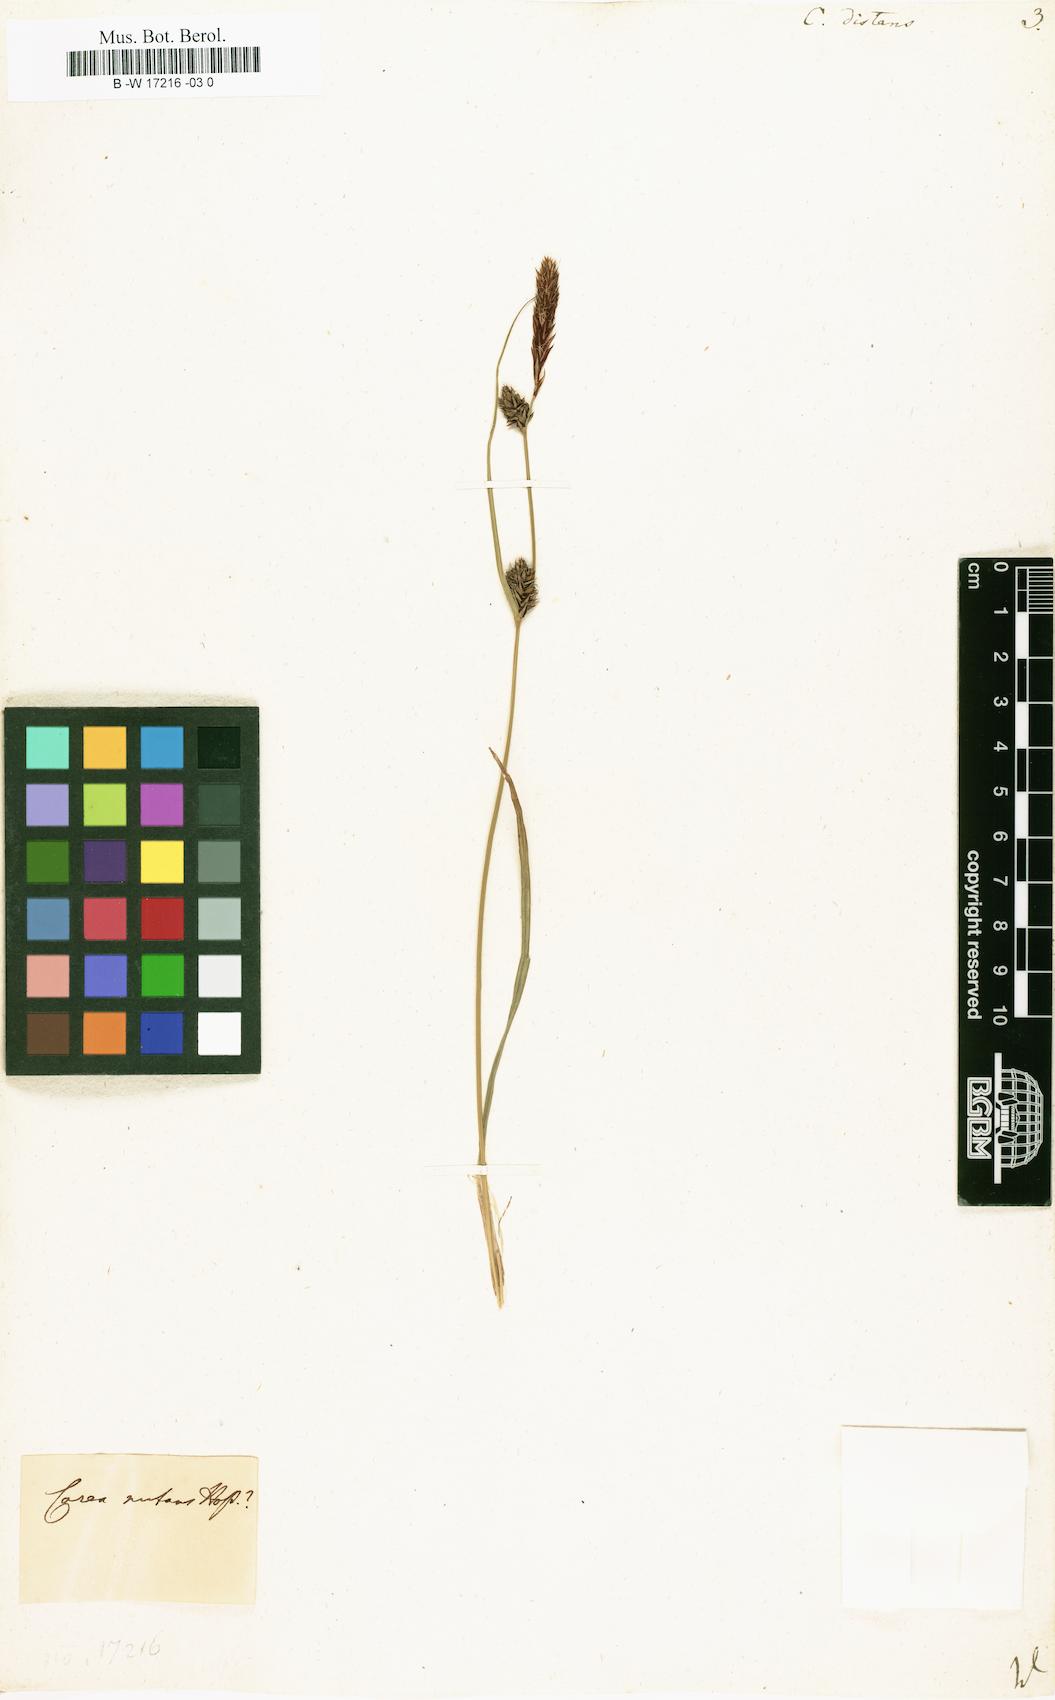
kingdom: Plantae
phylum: Tracheophyta
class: Liliopsida
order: Poales
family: Cyperaceae
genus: Carex
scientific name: Carex distans
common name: Distant sedge
